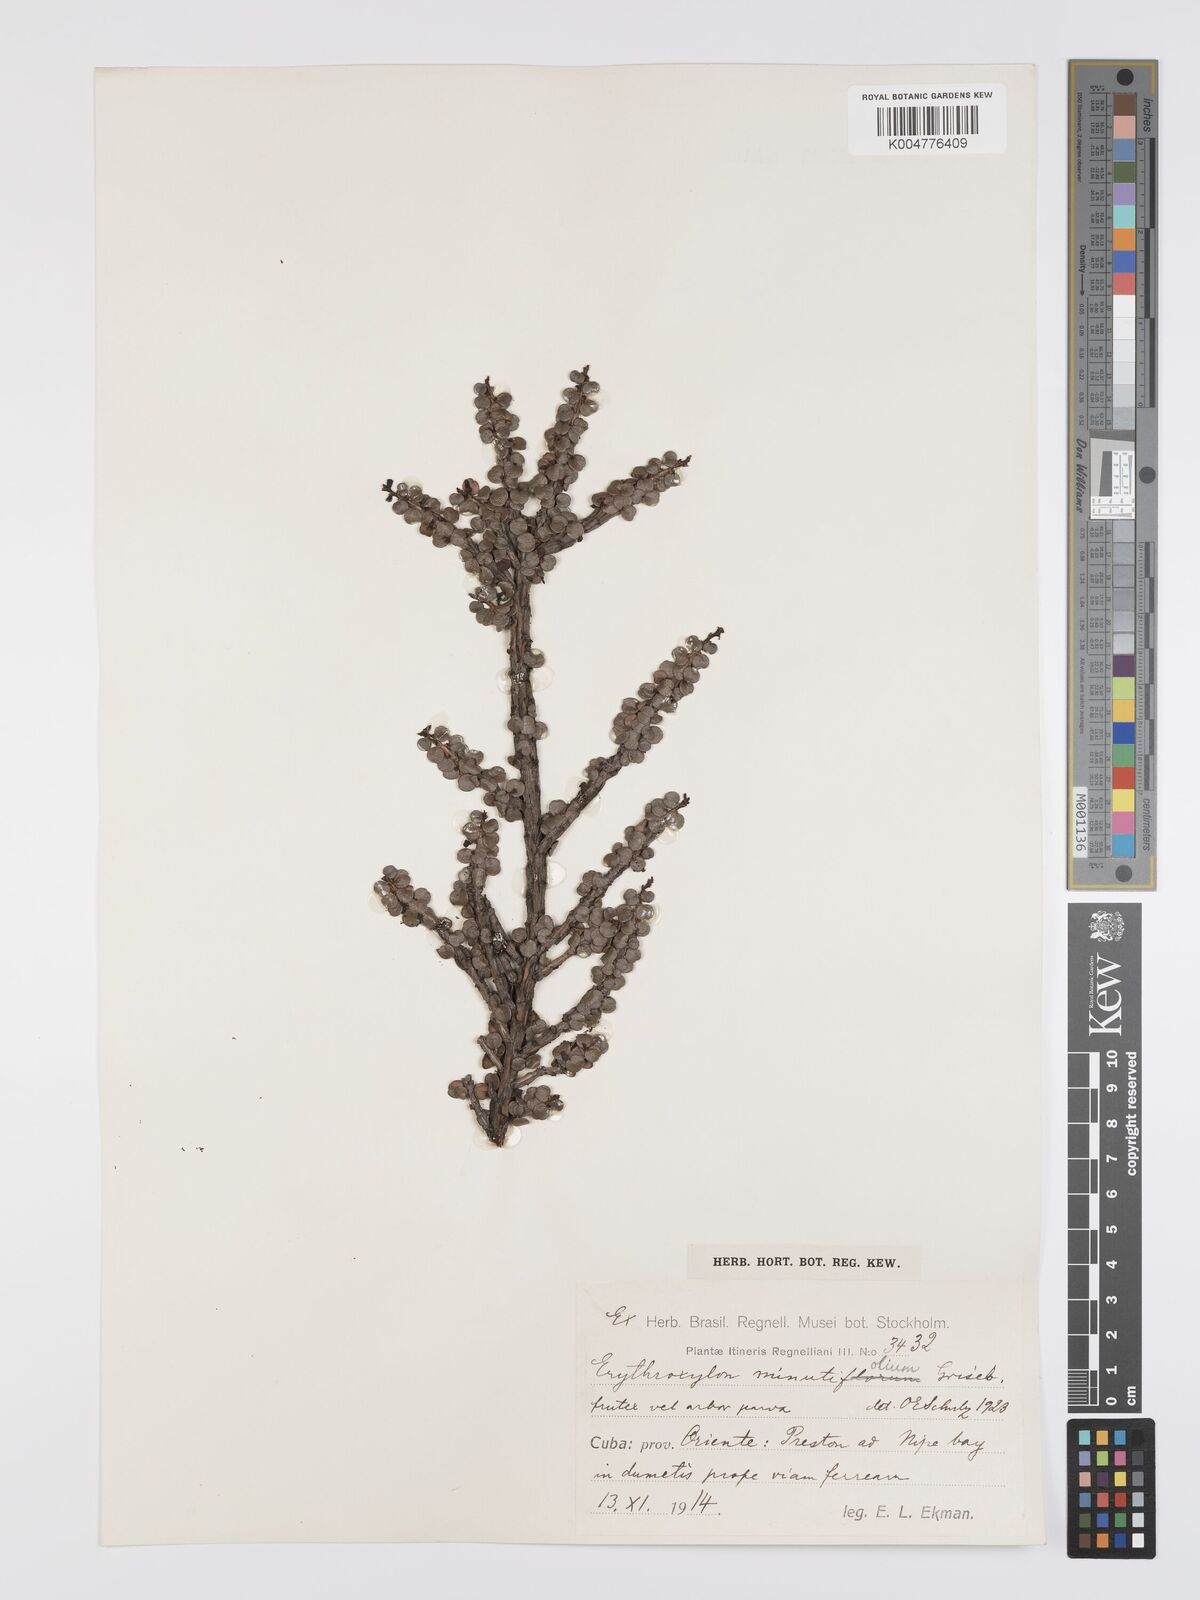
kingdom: Plantae
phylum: Tracheophyta
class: Magnoliopsida
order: Malpighiales
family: Erythroxylaceae
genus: Erythroxylum
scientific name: Erythroxylum minutifolium
